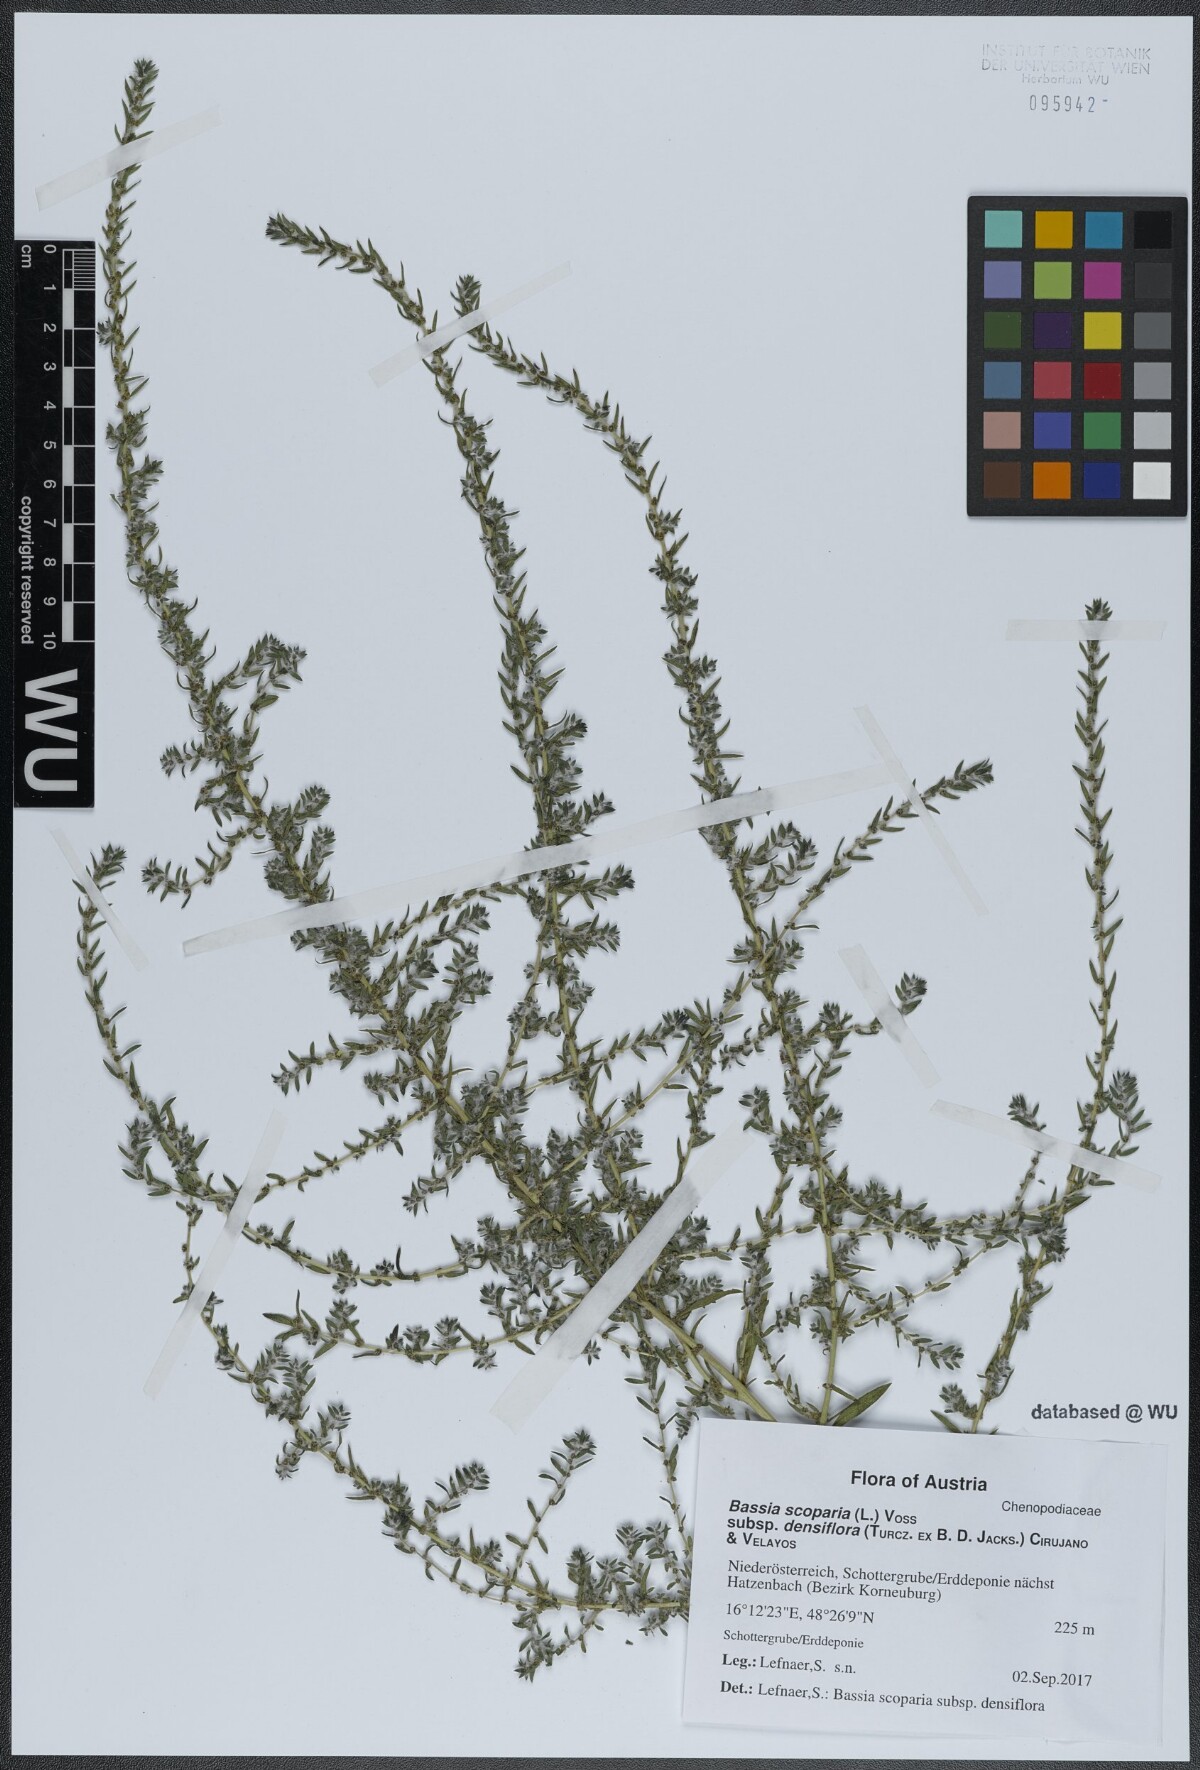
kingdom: Plantae
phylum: Tracheophyta
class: Magnoliopsida
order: Caryophyllales
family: Amaranthaceae
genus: Bassia
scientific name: Bassia scoparia
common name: Belvedere
